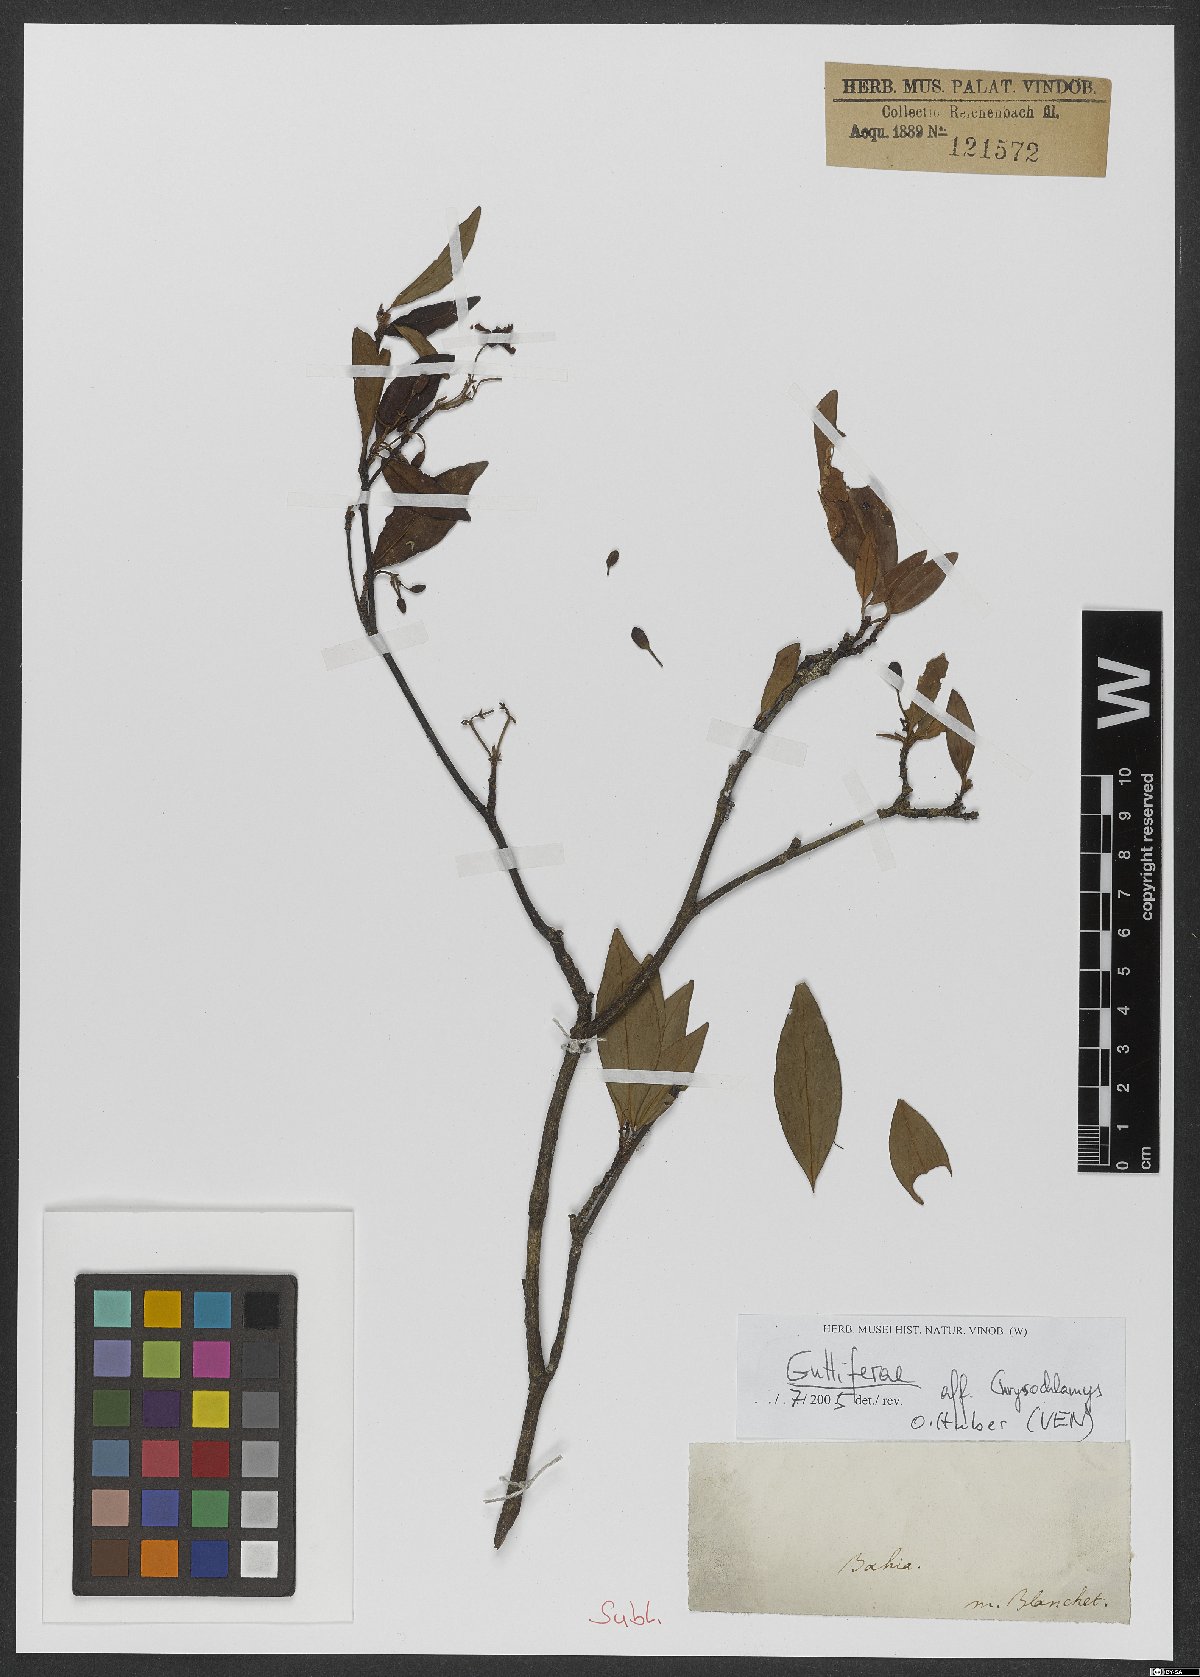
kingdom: Plantae
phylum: Tracheophyta
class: Magnoliopsida
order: Malpighiales
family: Clusiaceae
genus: Tovomita
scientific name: Tovomita fructipendula
